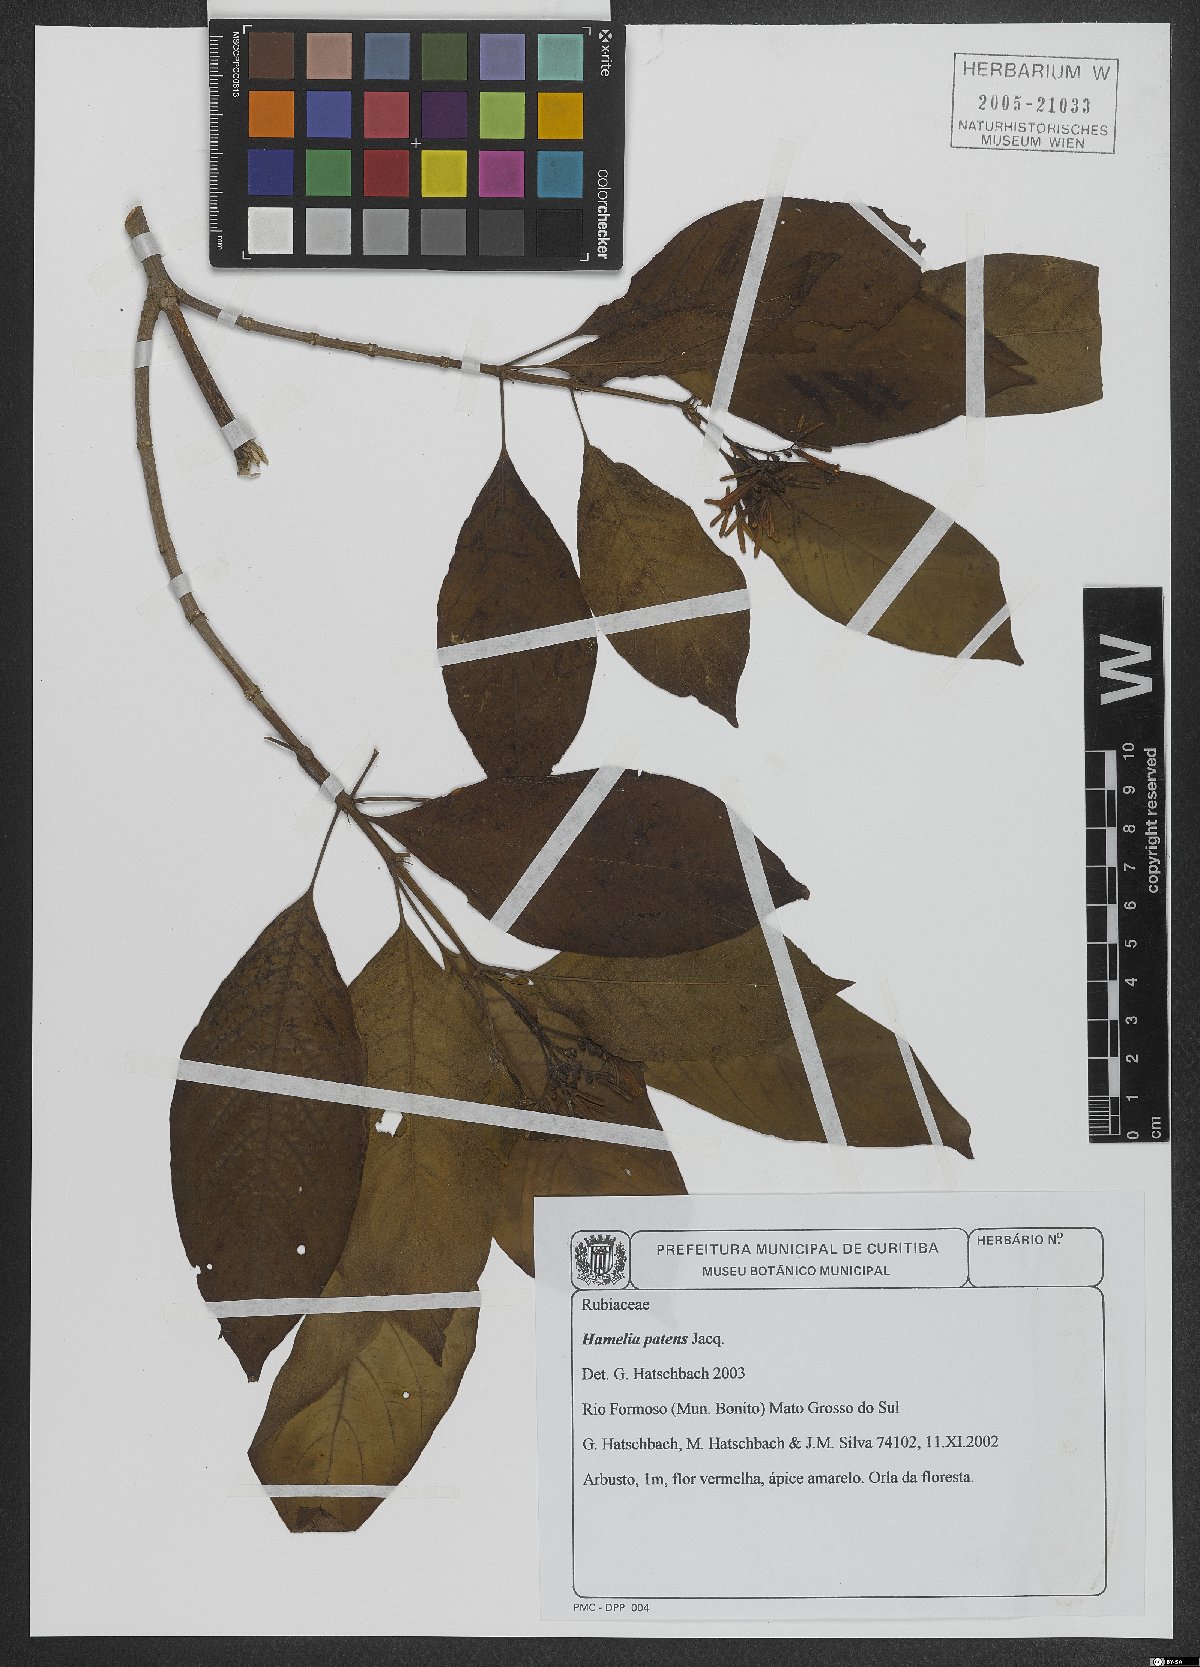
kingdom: Plantae
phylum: Tracheophyta
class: Magnoliopsida
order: Gentianales
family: Rubiaceae
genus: Hamelia
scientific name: Hamelia patens
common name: Redhead
